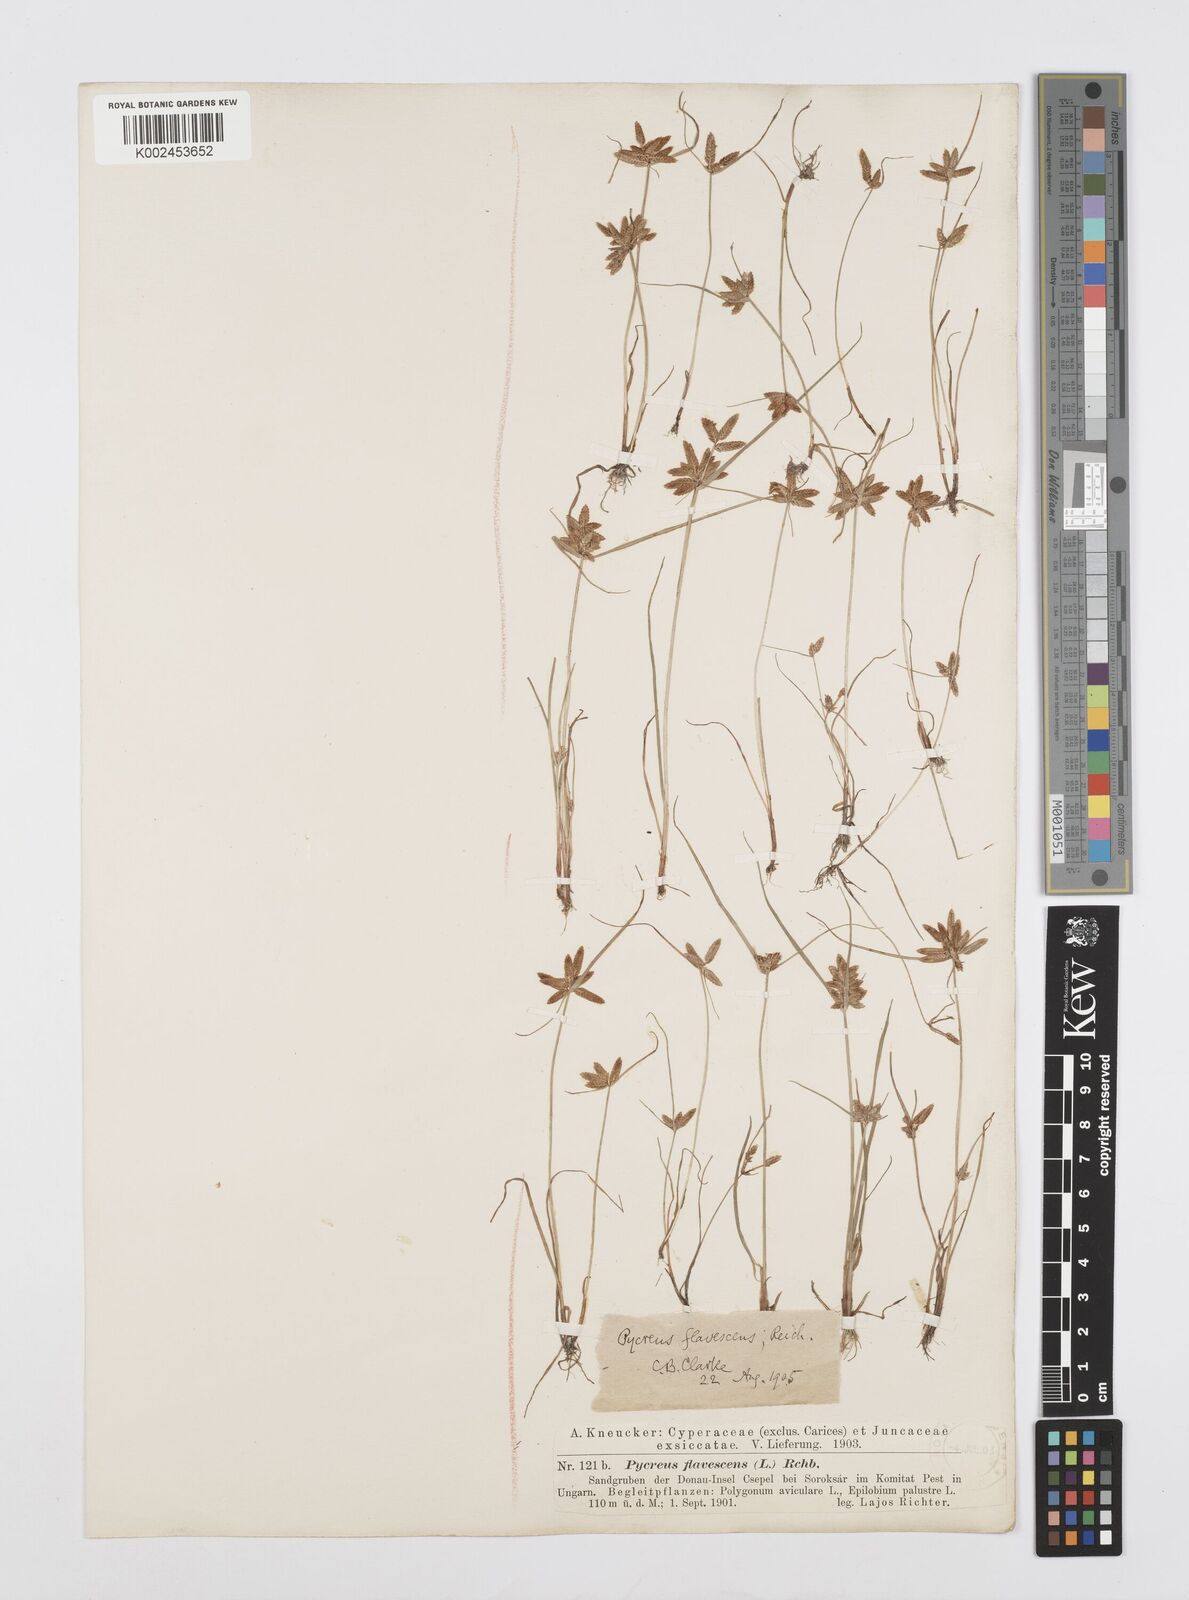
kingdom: Plantae
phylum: Tracheophyta
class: Liliopsida
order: Poales
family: Cyperaceae
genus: Cyperus
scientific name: Cyperus flavescens
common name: Yellow galingale
